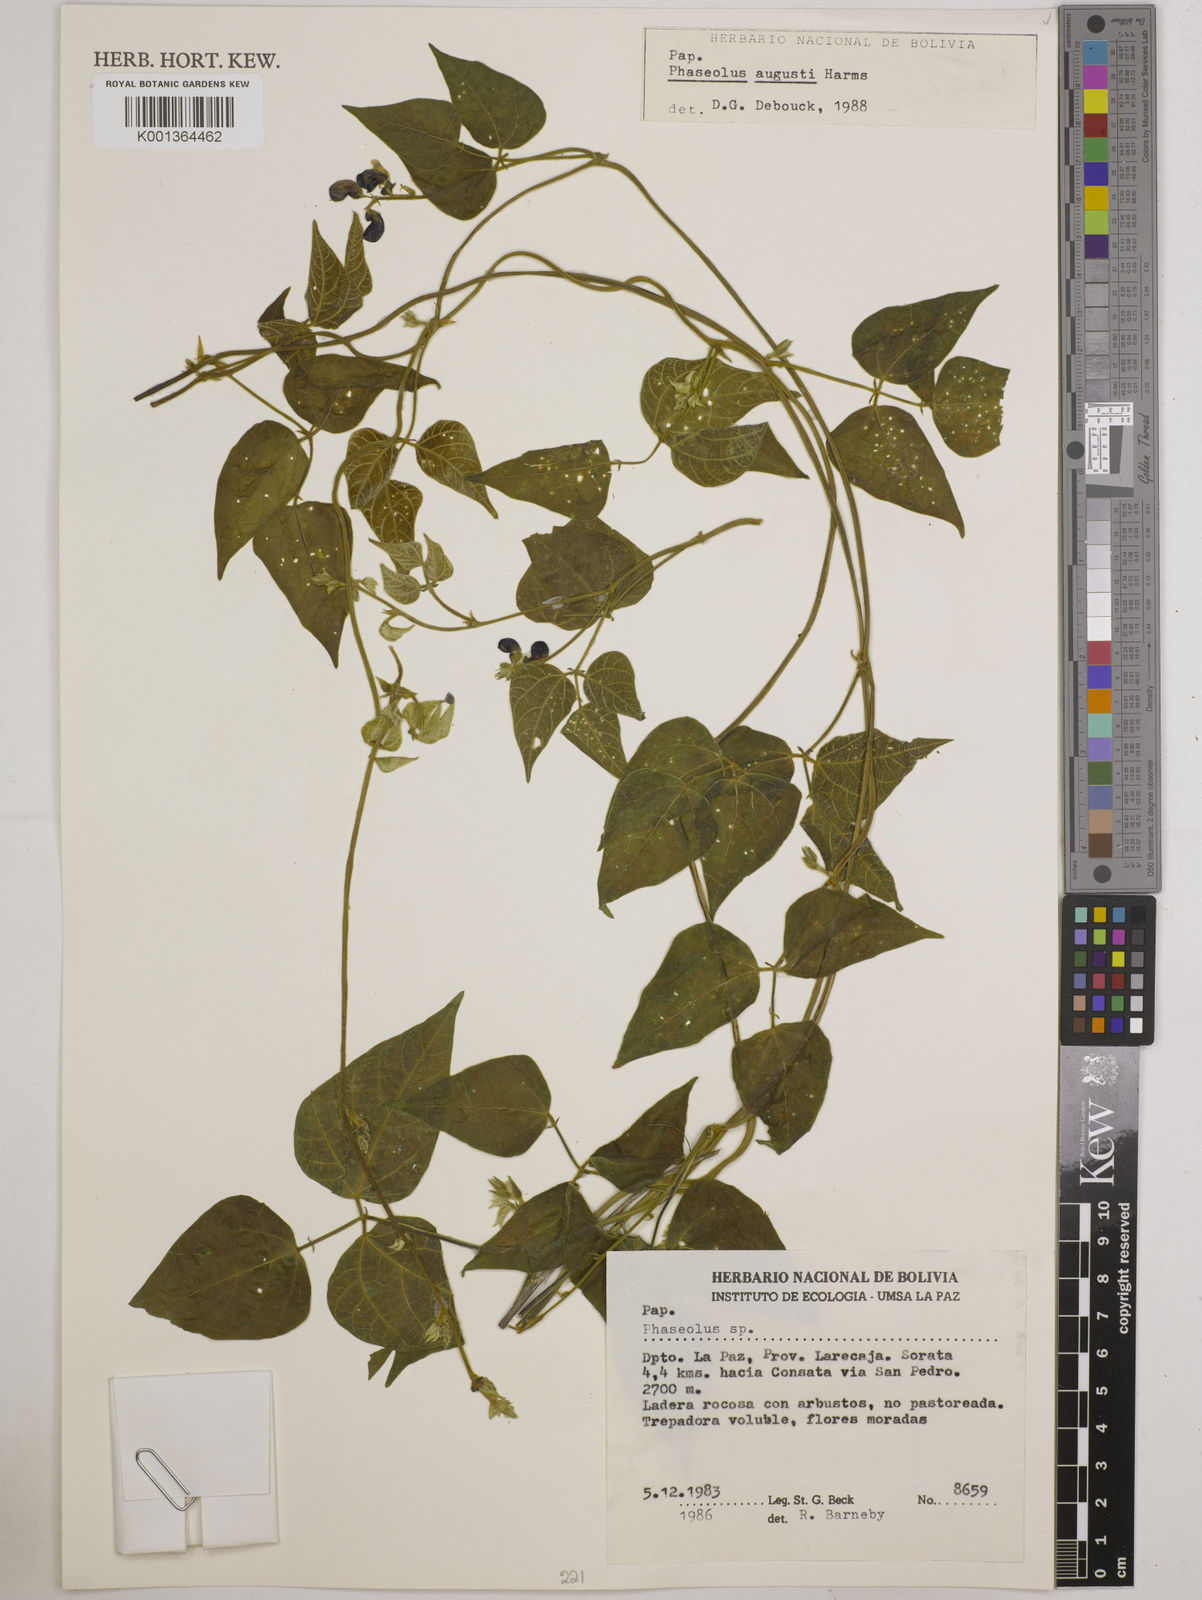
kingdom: Plantae
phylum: Tracheophyta
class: Magnoliopsida
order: Fabales
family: Fabaceae
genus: Phaseolus
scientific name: Phaseolus augusti
